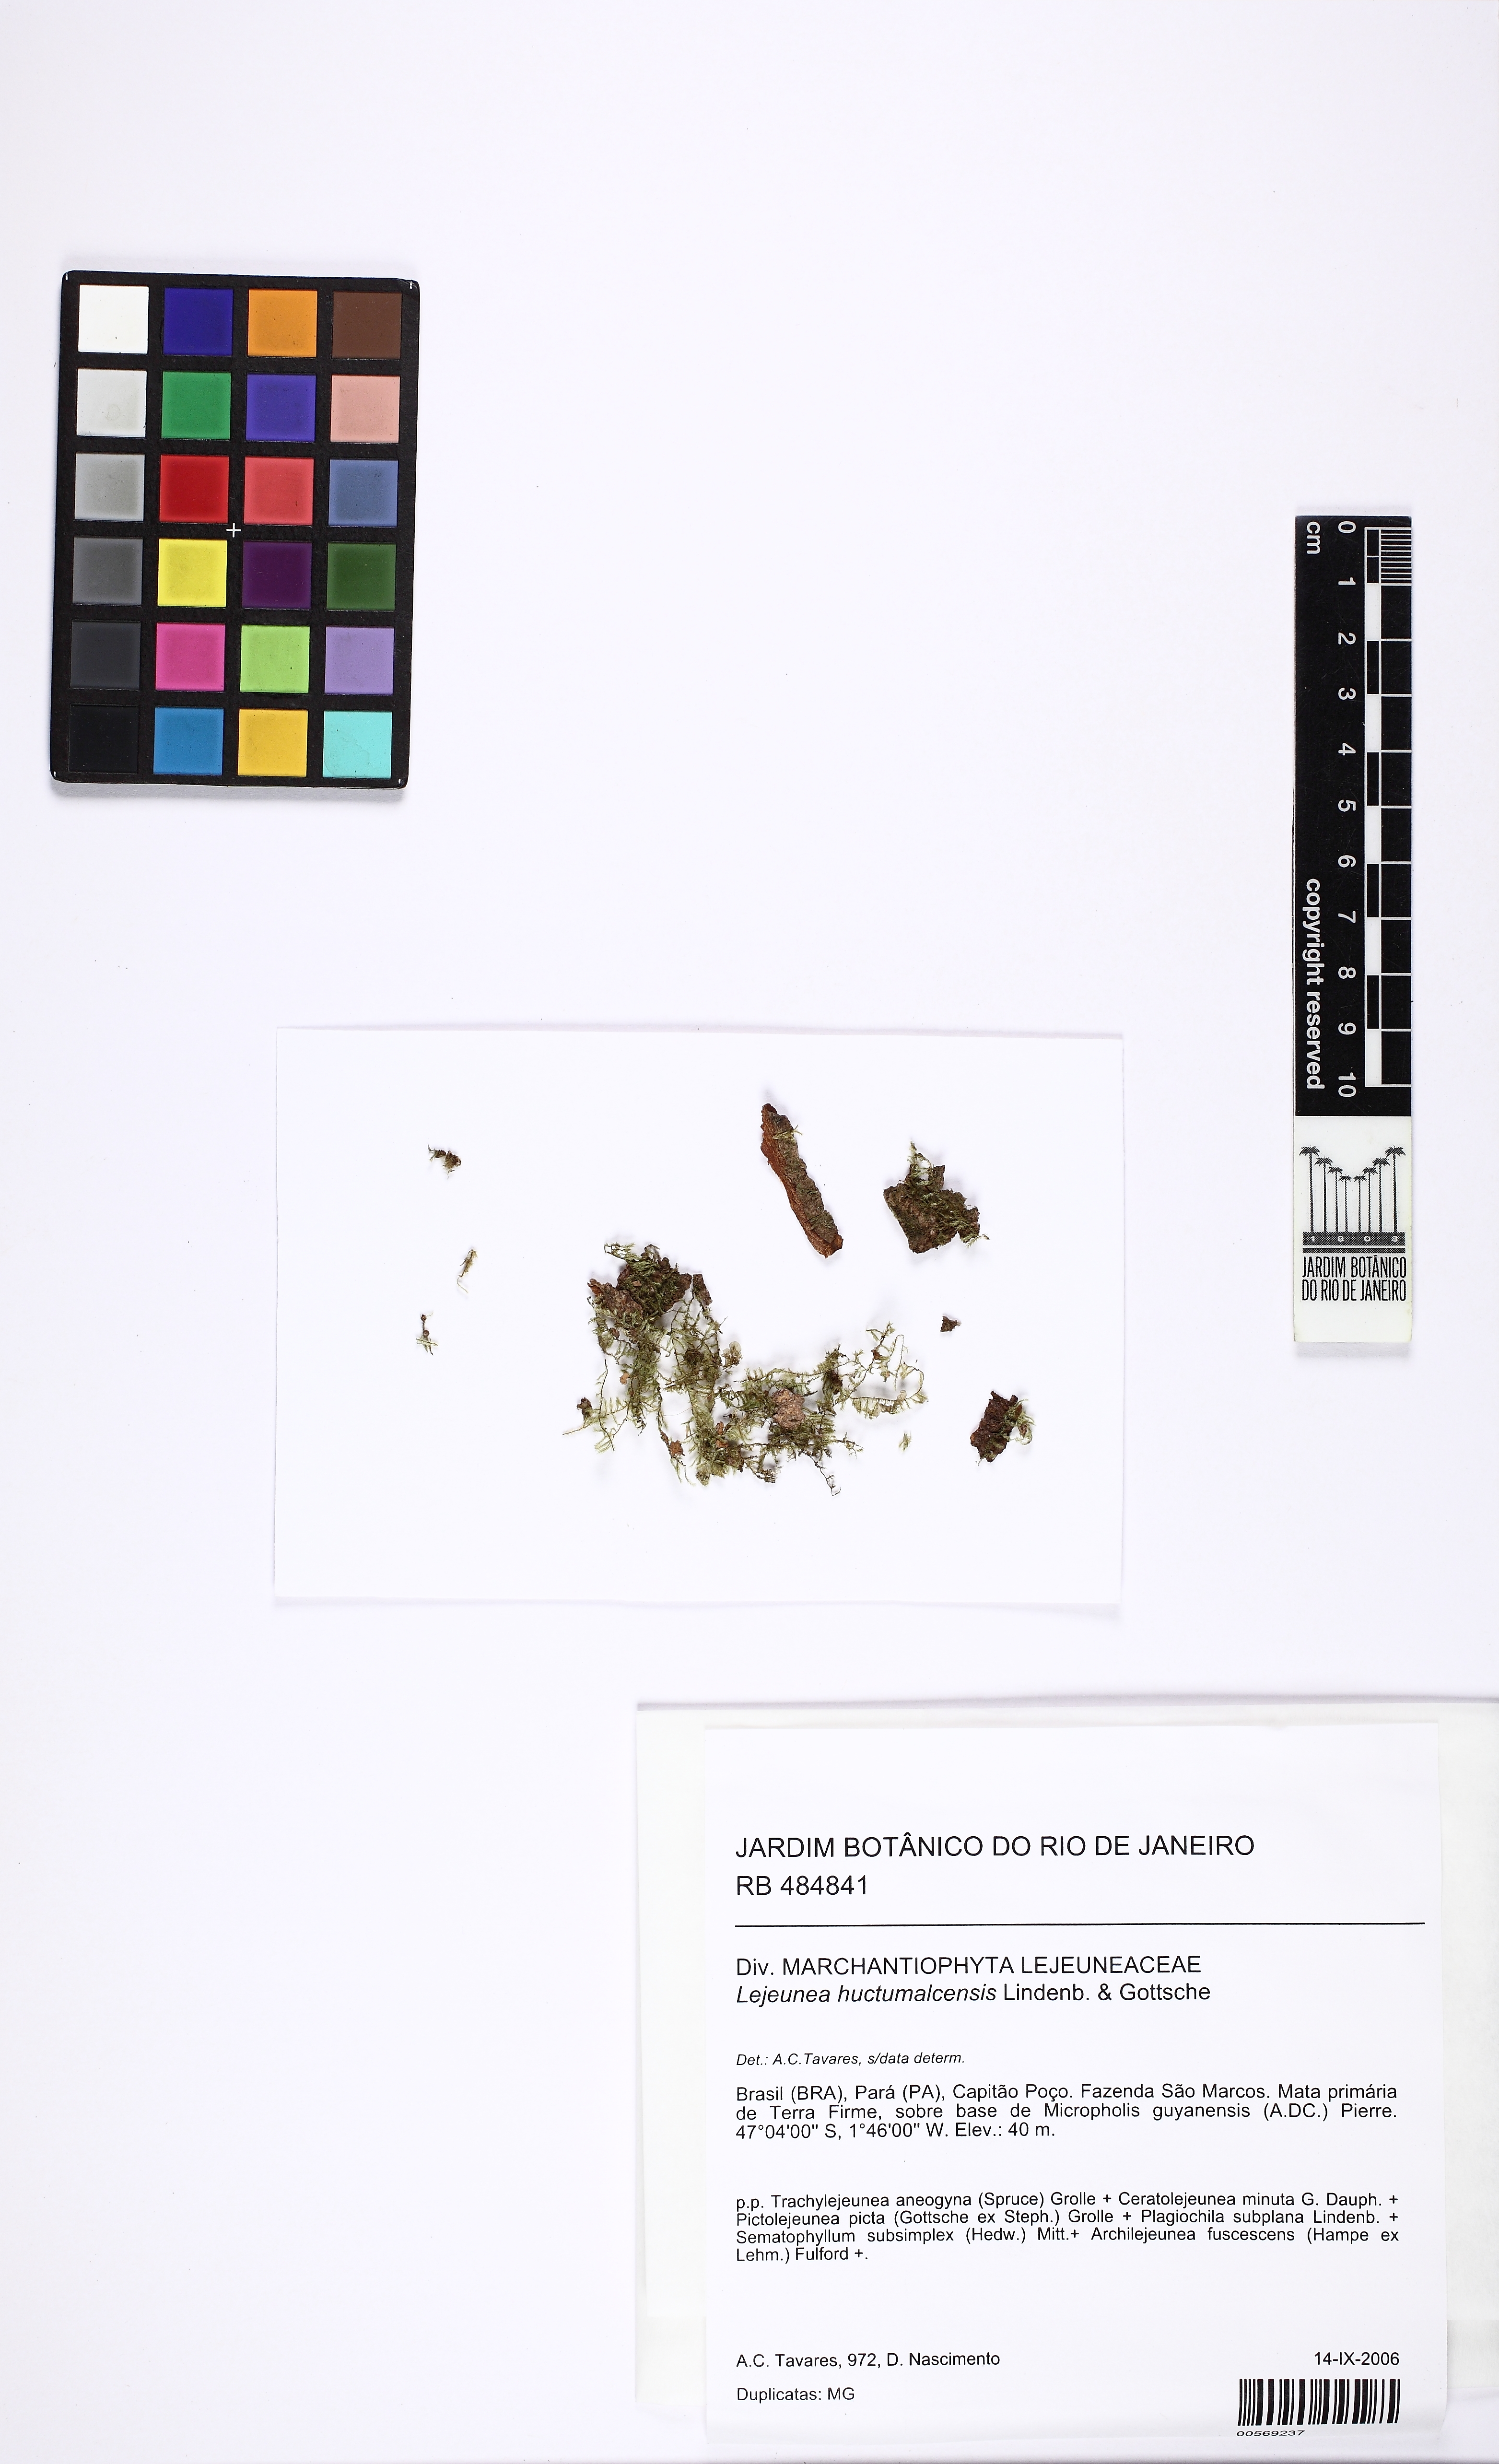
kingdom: Plantae
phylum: Marchantiophyta
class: Jungermanniopsida
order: Porellales
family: Lejeuneaceae
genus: Otigoniolejeunea
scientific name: Otigoniolejeunea huctumalcensis
